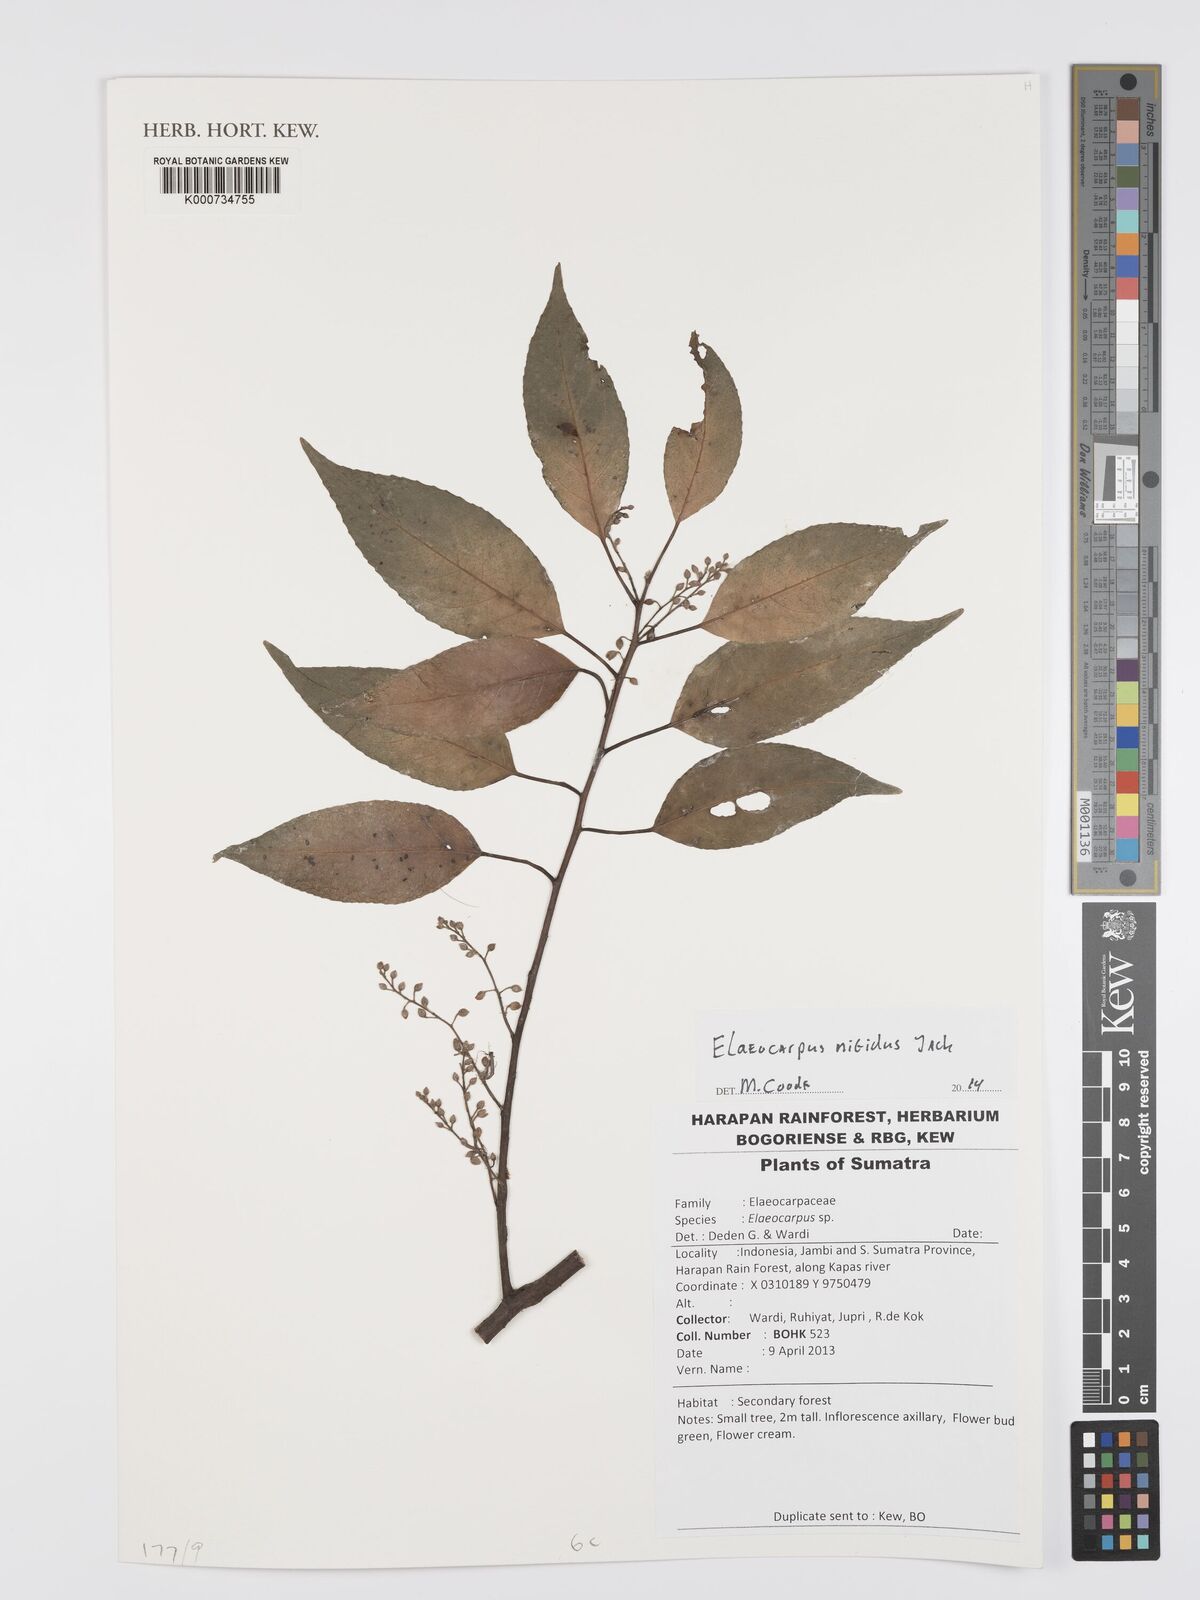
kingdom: Plantae
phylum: Tracheophyta
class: Magnoliopsida
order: Oxalidales
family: Elaeocarpaceae
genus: Elaeocarpus
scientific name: Elaeocarpus nitidus
